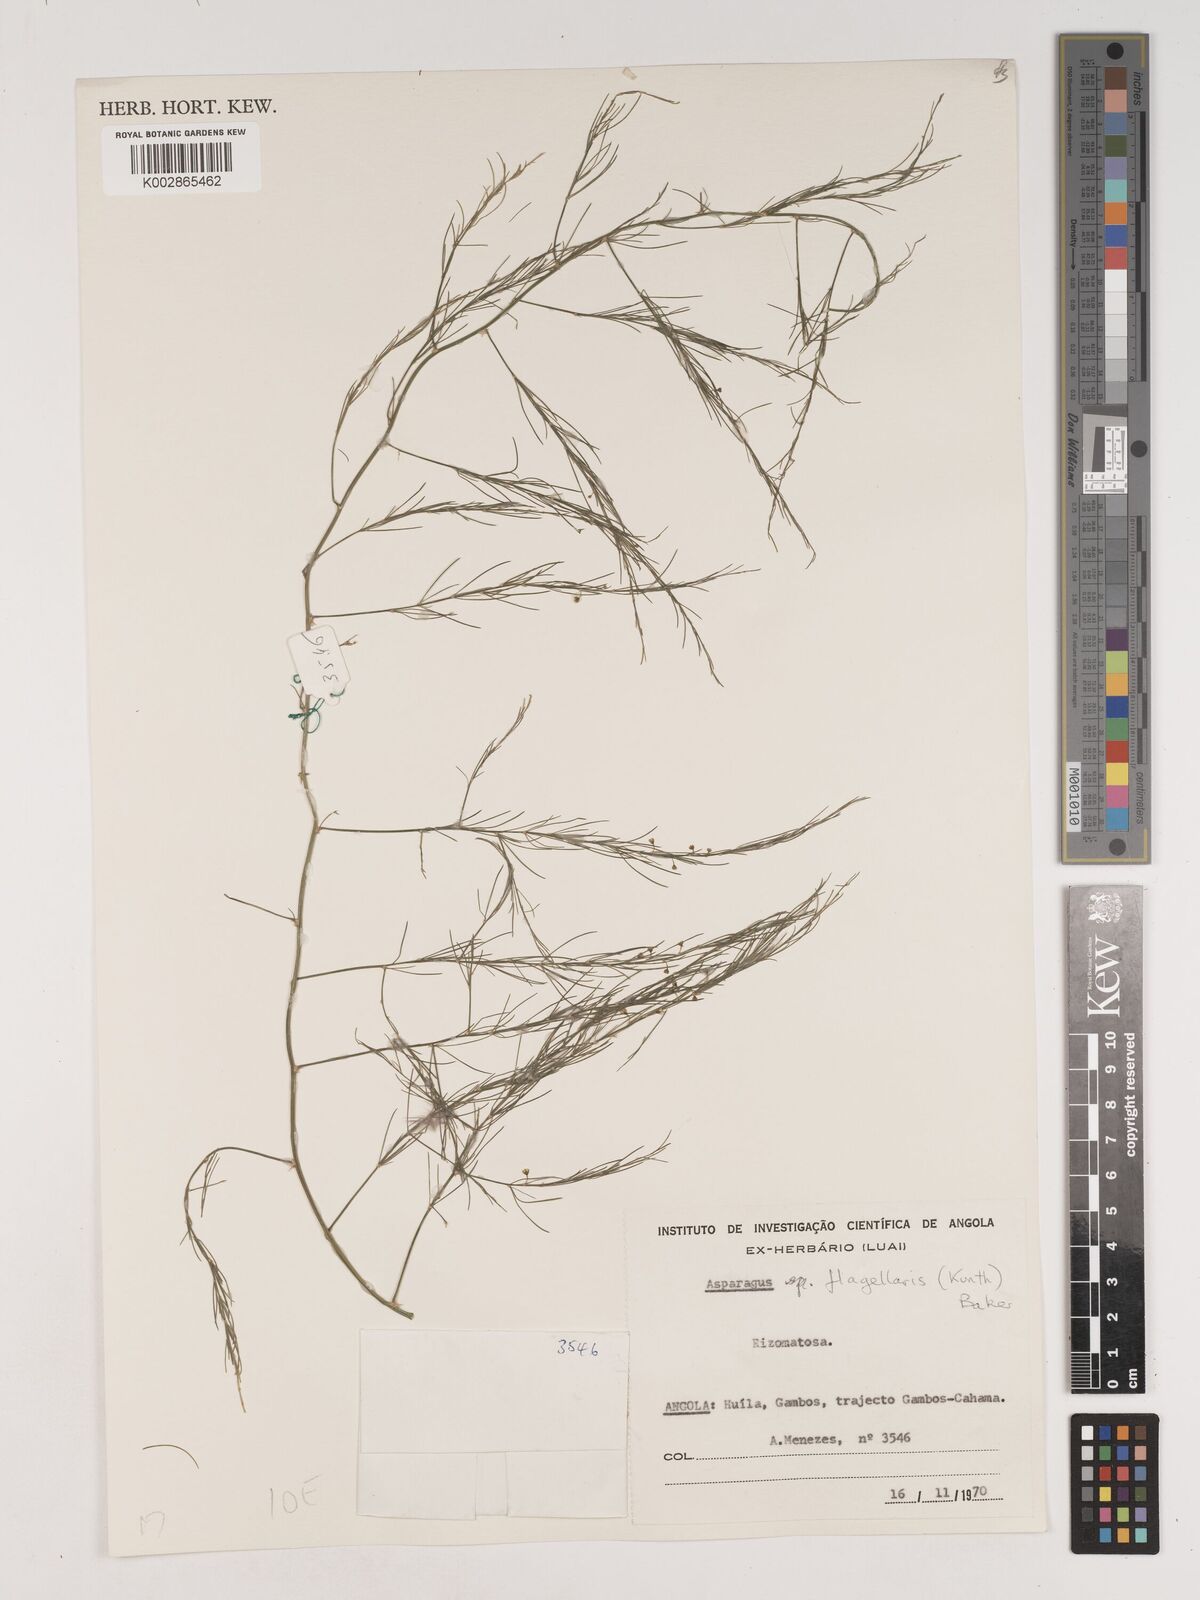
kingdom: Plantae
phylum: Tracheophyta
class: Liliopsida
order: Asparagales
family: Asparagaceae
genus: Asparagus
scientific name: Asparagus flagellaris
